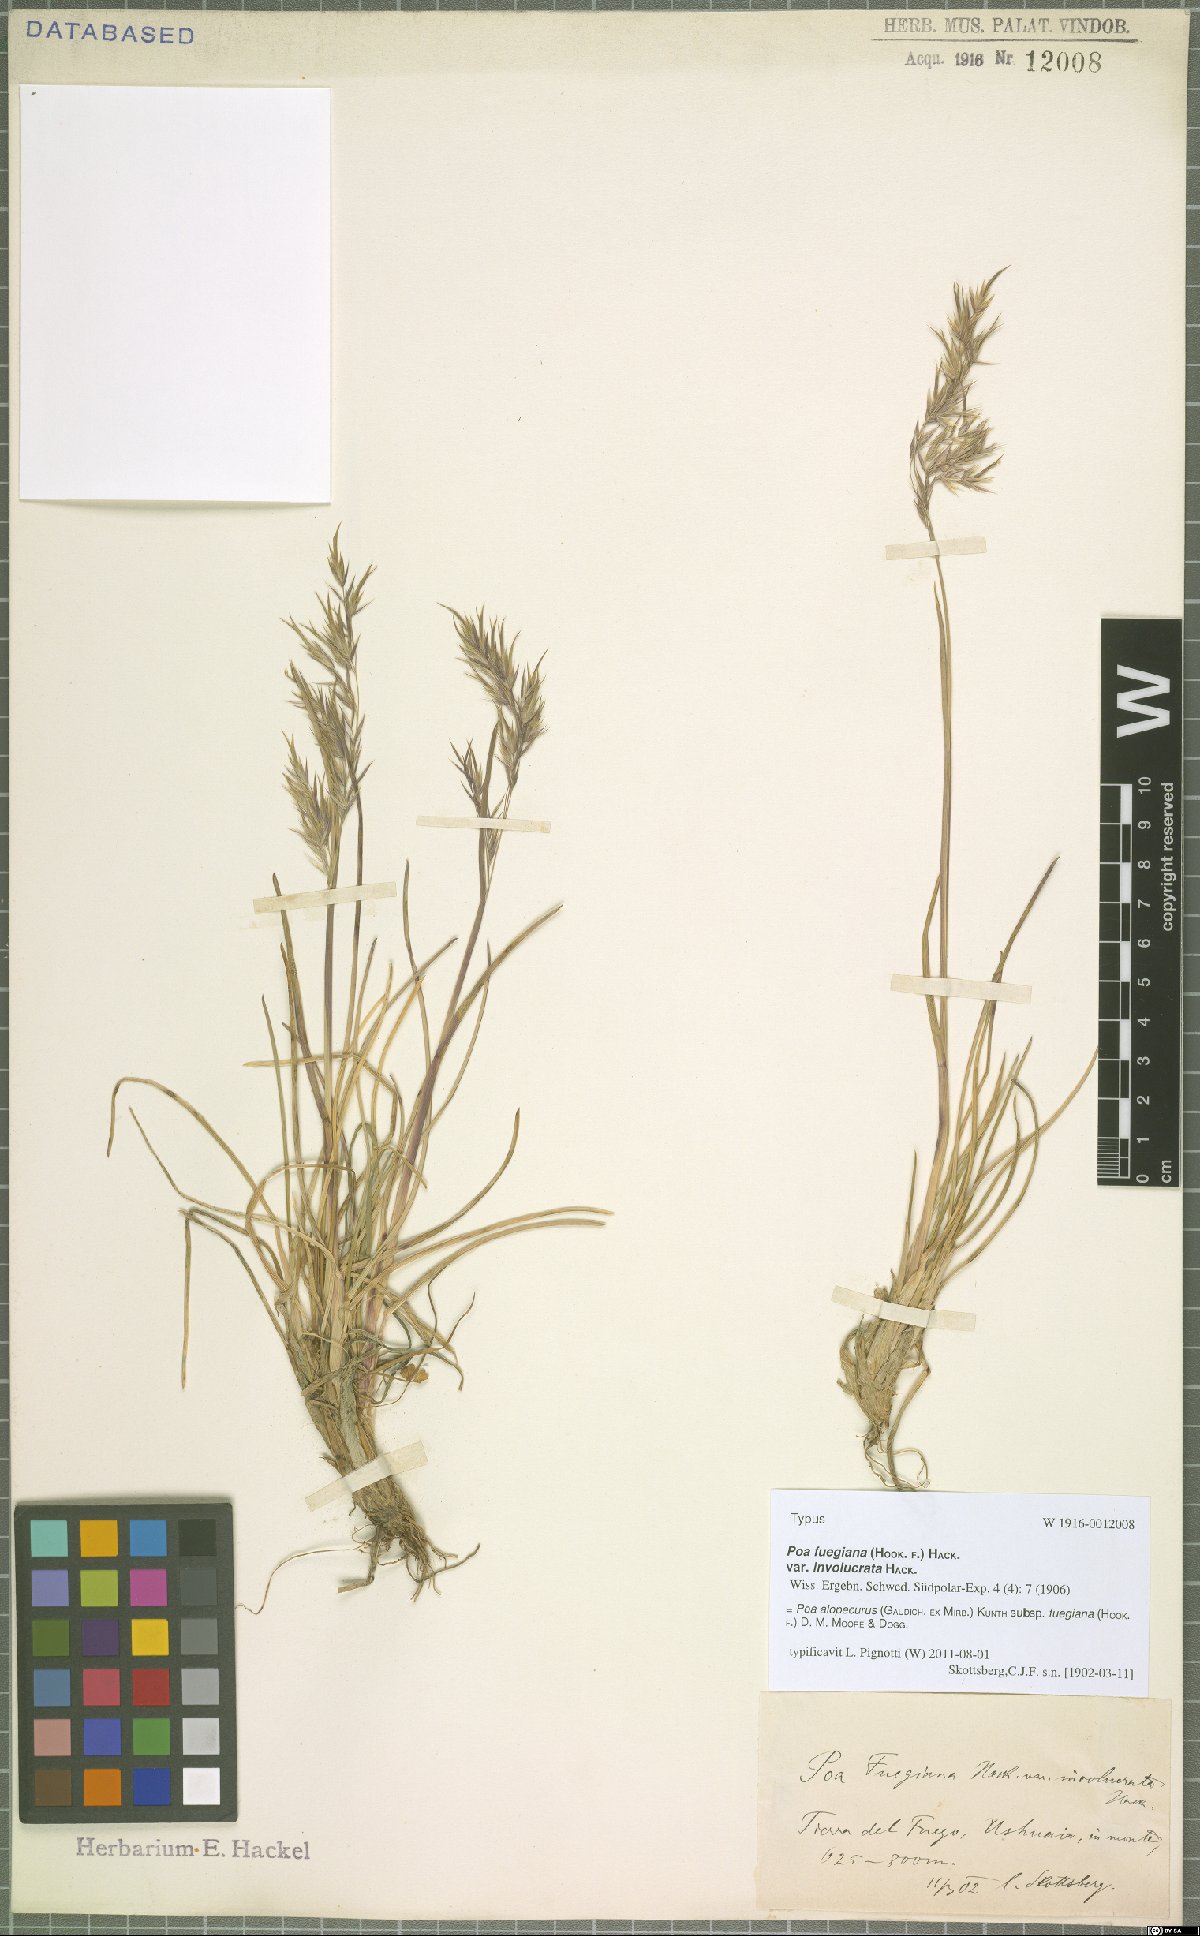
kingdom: Plantae
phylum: Tracheophyta
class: Liliopsida
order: Poales
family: Poaceae
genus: Poa
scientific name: Poa alopecurus
